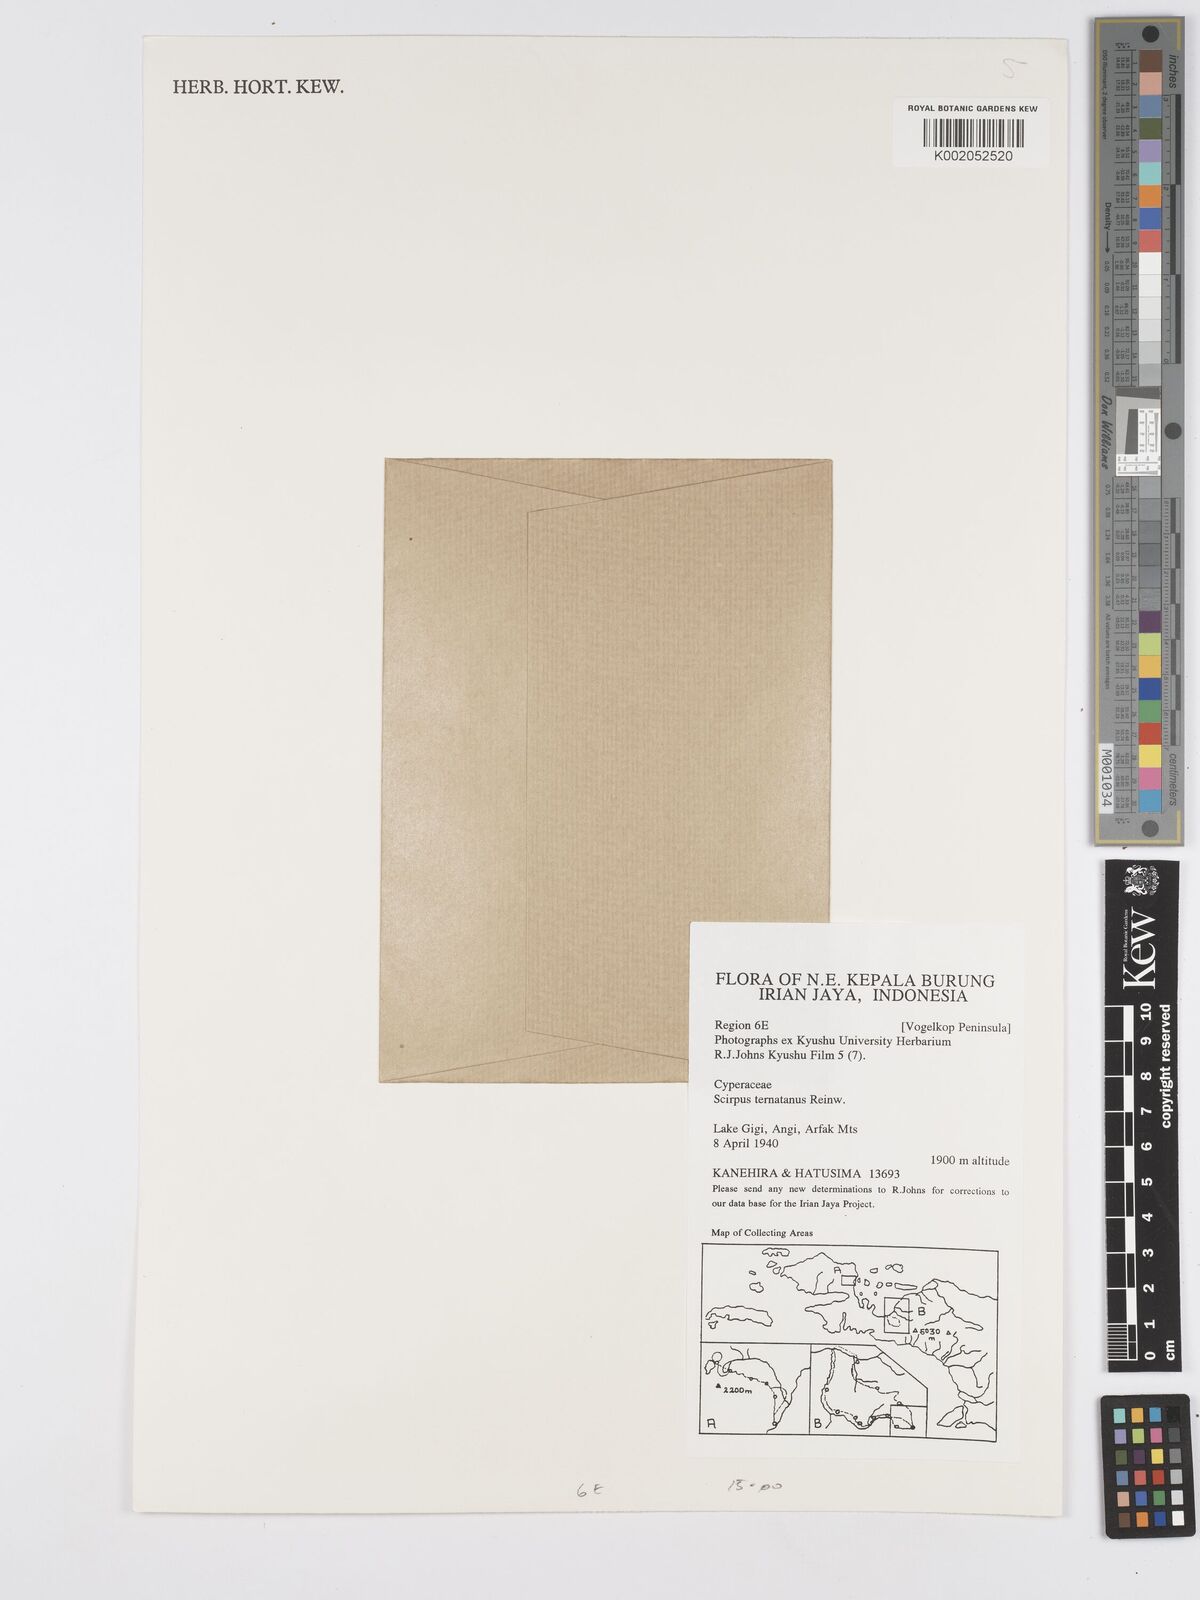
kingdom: Plantae
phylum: Tracheophyta
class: Liliopsida
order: Poales
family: Cyperaceae
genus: Scirpus
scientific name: Scirpus ternatanus
